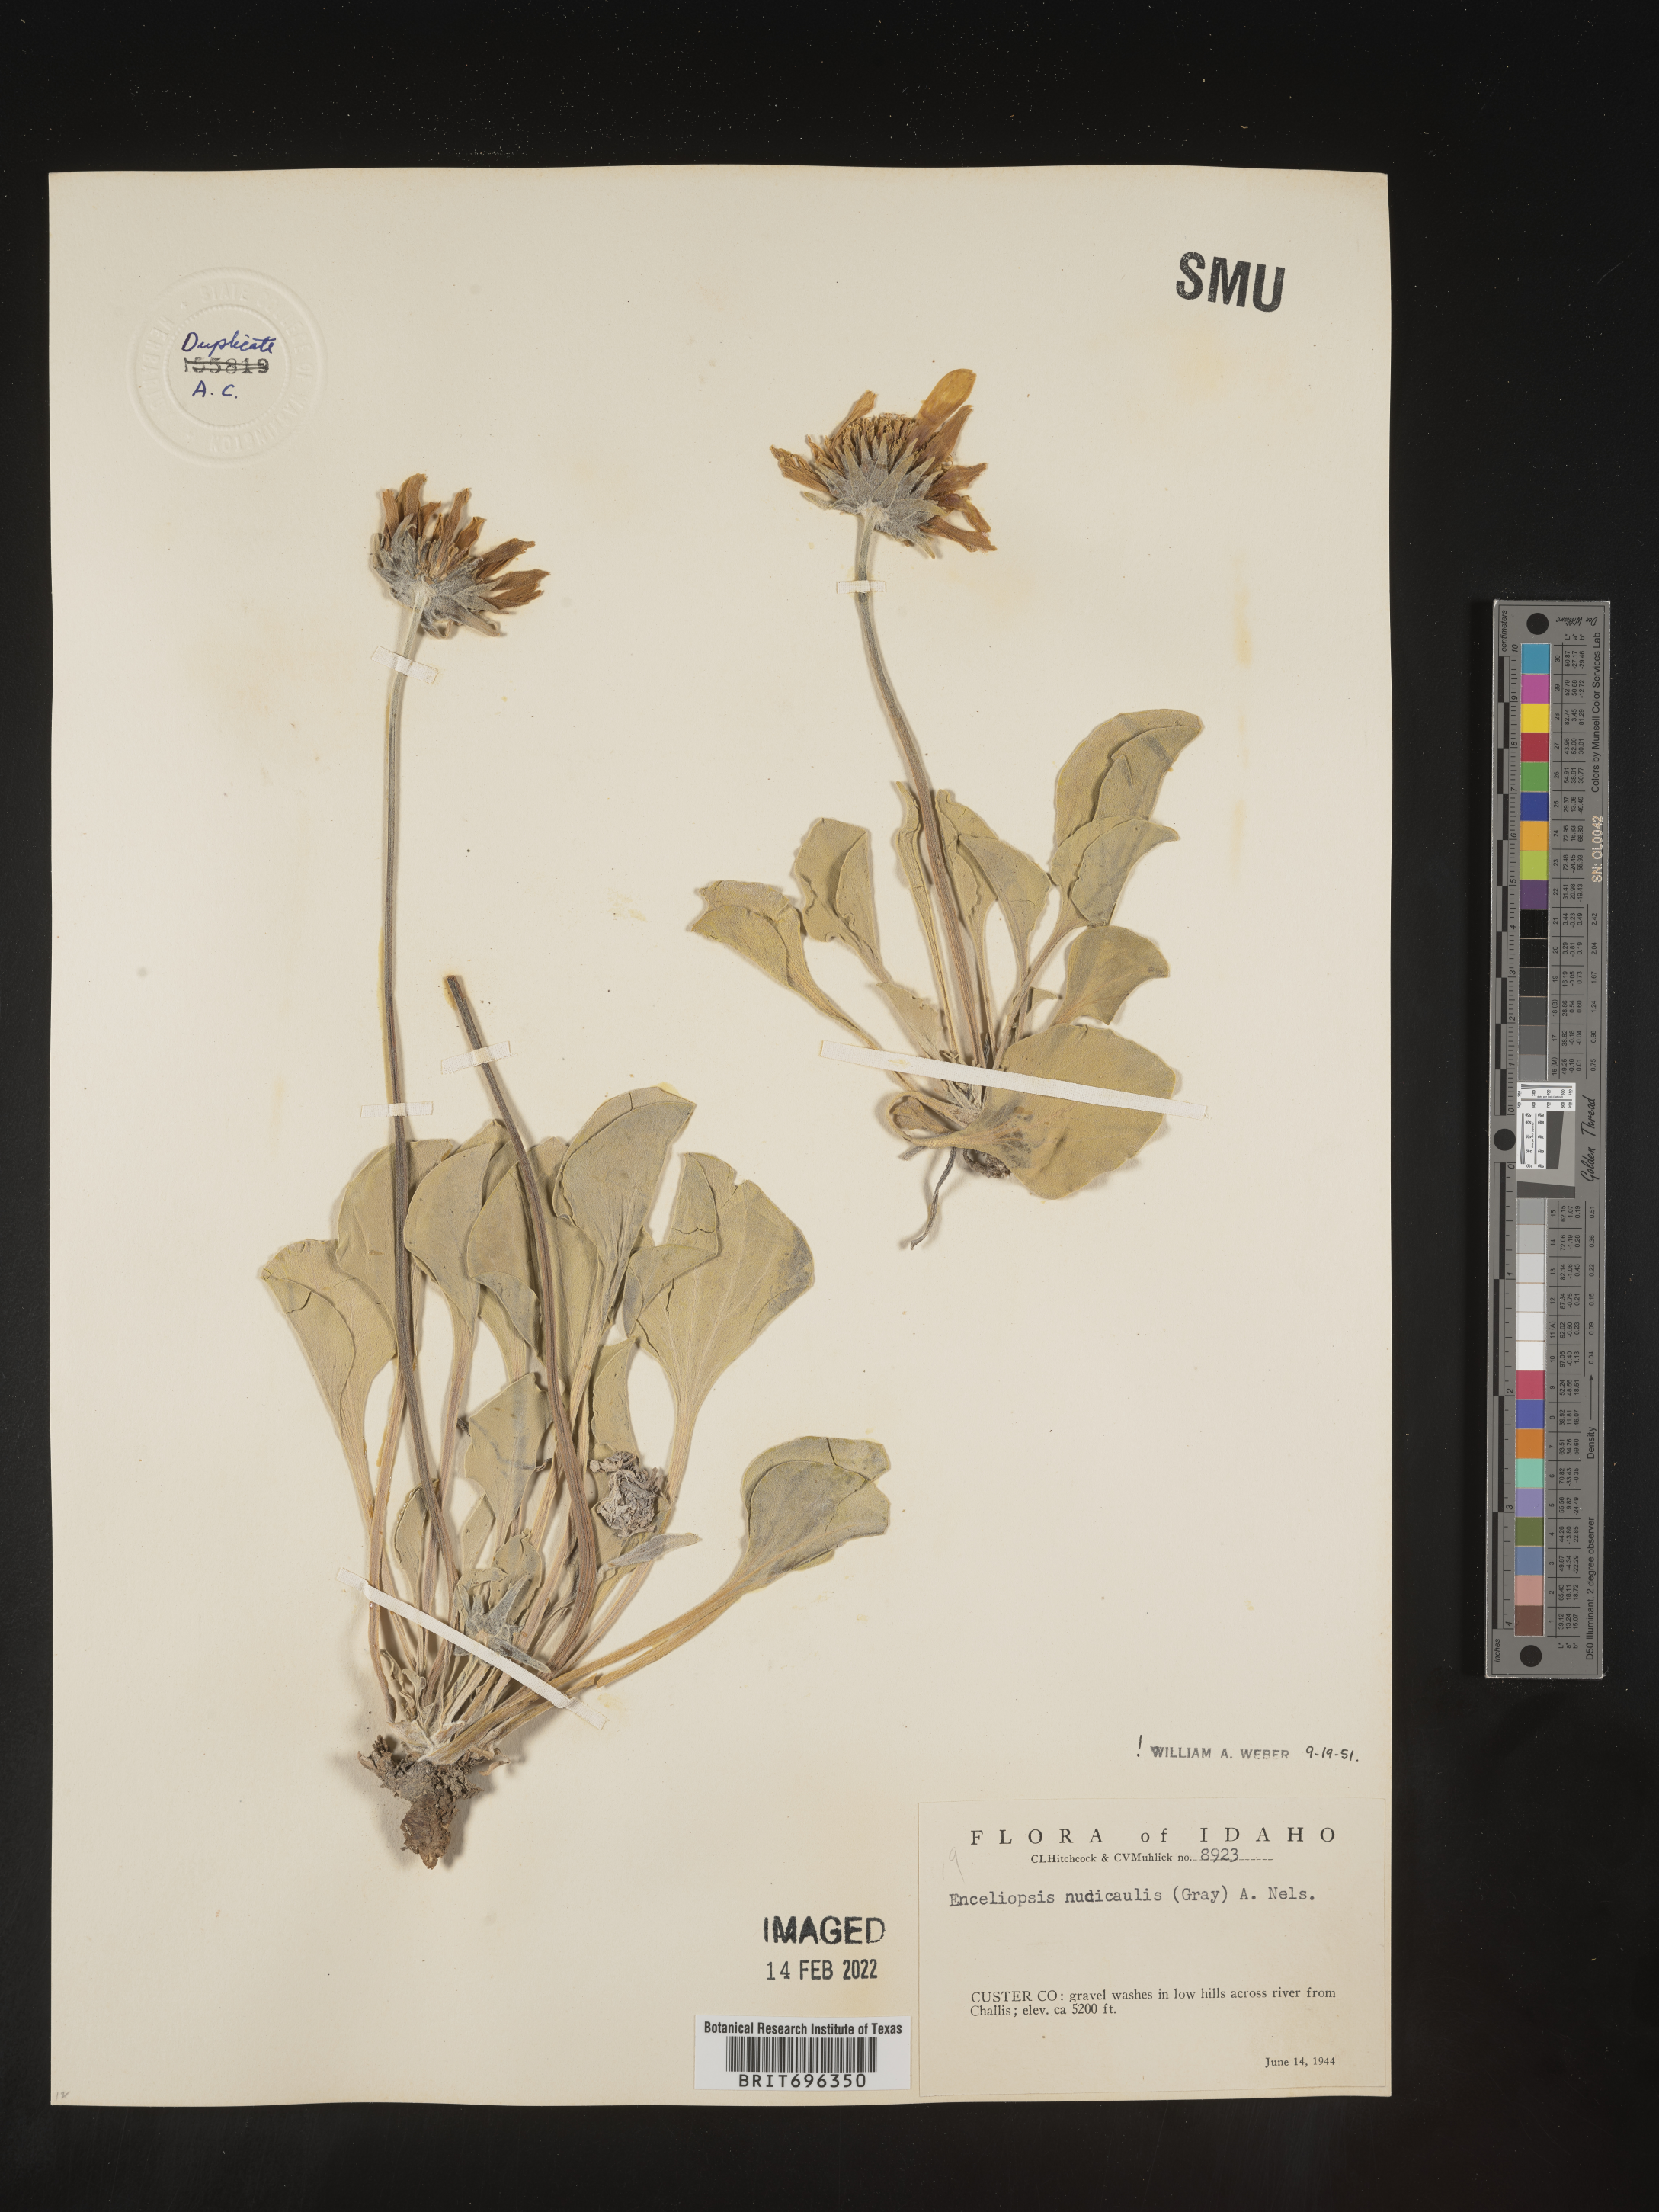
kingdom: Plantae
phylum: Tracheophyta
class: Magnoliopsida
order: Asterales
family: Asteraceae
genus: Enceliopsis
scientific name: Enceliopsis nudicaulis
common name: Naked-stem daisy
